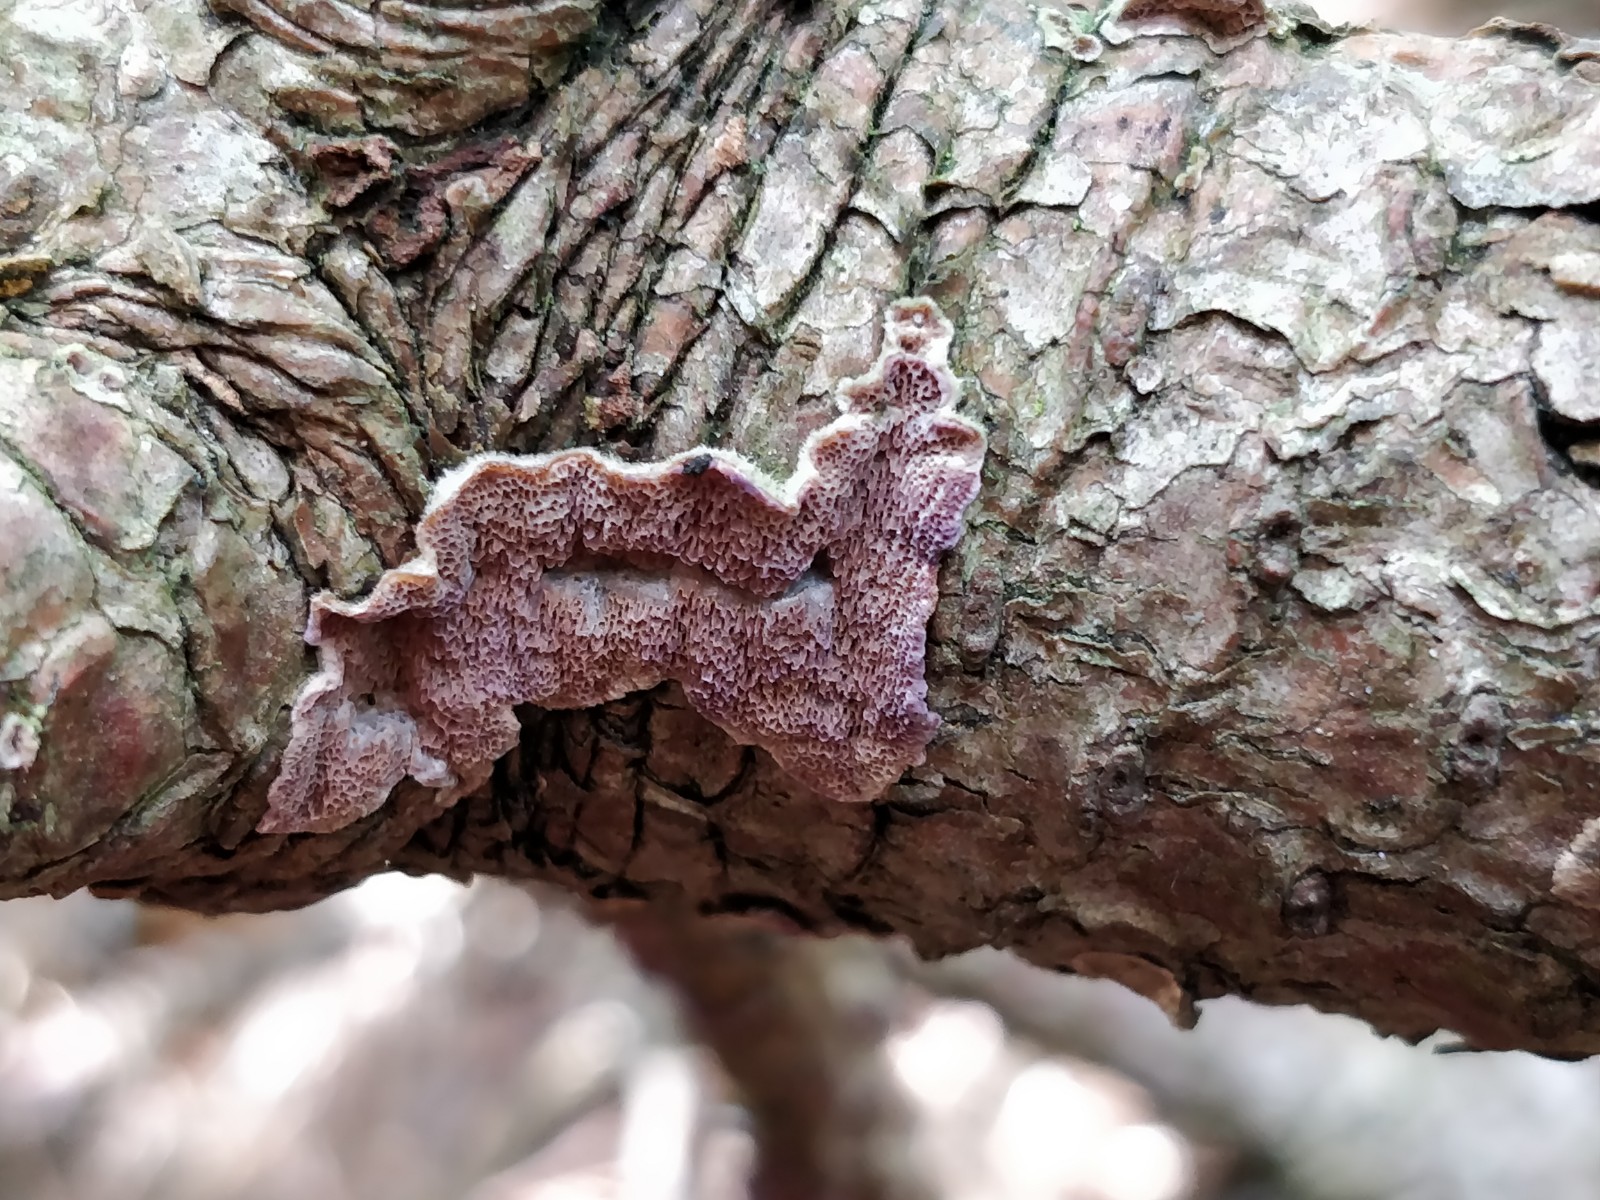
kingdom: Fungi
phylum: Basidiomycota
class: Agaricomycetes
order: Hymenochaetales
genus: Trichaptum
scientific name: Trichaptum fuscoviolaceum
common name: tandet violporesvamp
